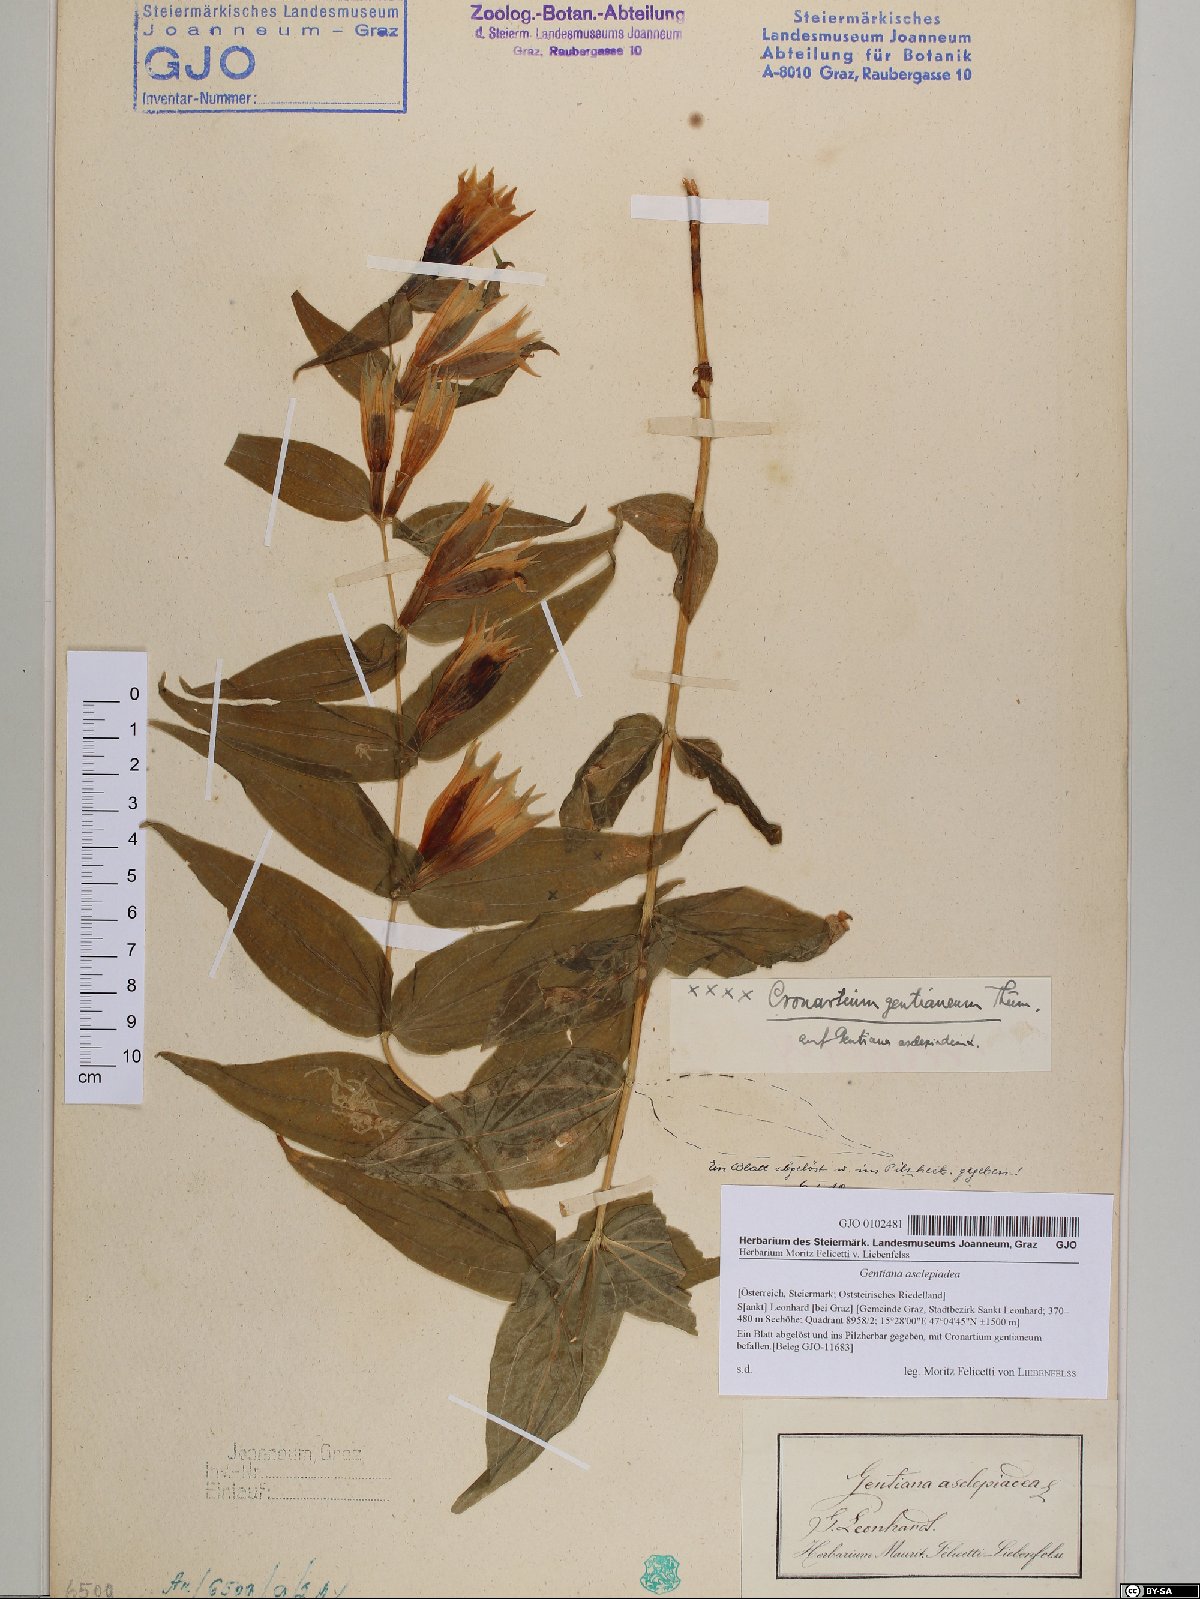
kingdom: Plantae
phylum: Tracheophyta
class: Magnoliopsida
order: Gentianales
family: Gentianaceae
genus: Gentiana
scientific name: Gentiana asclepiadea
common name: Willow gentian
